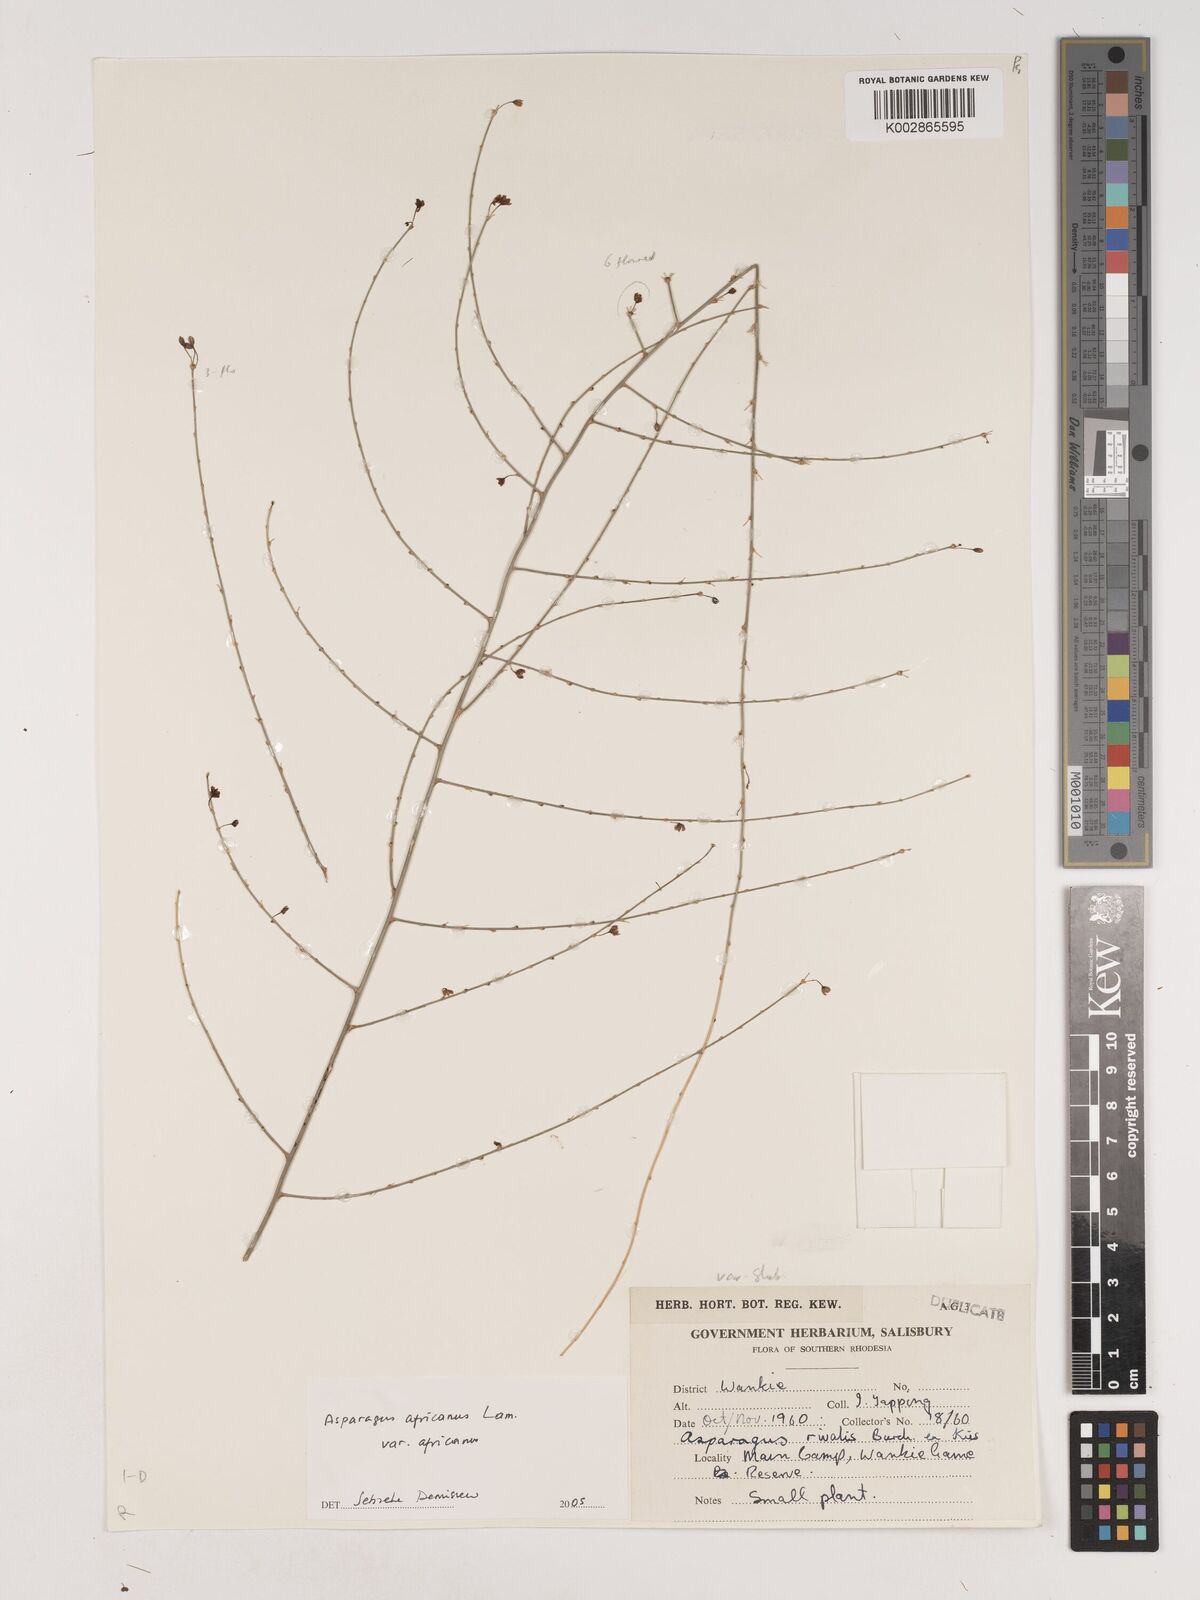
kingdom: Plantae
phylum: Tracheophyta
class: Liliopsida
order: Asparagales
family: Asparagaceae
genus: Asparagus
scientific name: Asparagus africanus
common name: Asparagus-fern
